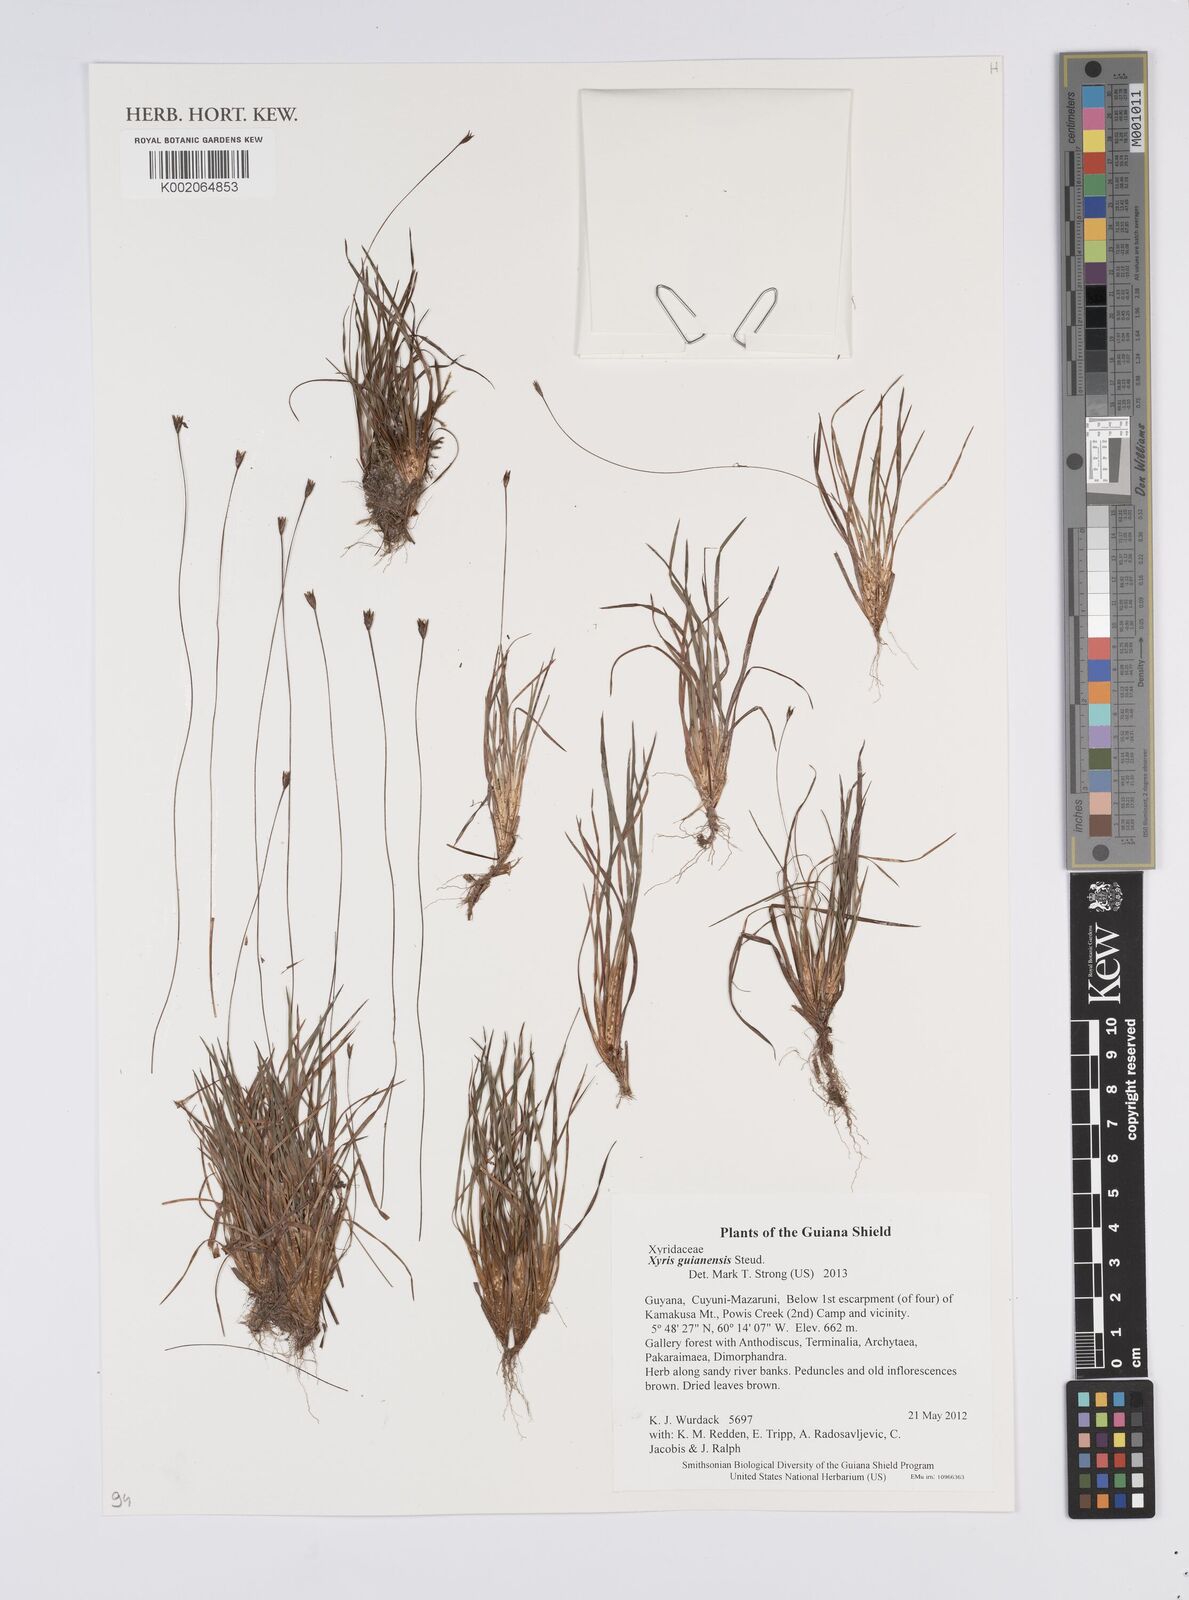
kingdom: Plantae
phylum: Tracheophyta
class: Liliopsida
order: Poales
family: Xyridaceae
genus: Xyris
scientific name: Xyris guianensis
